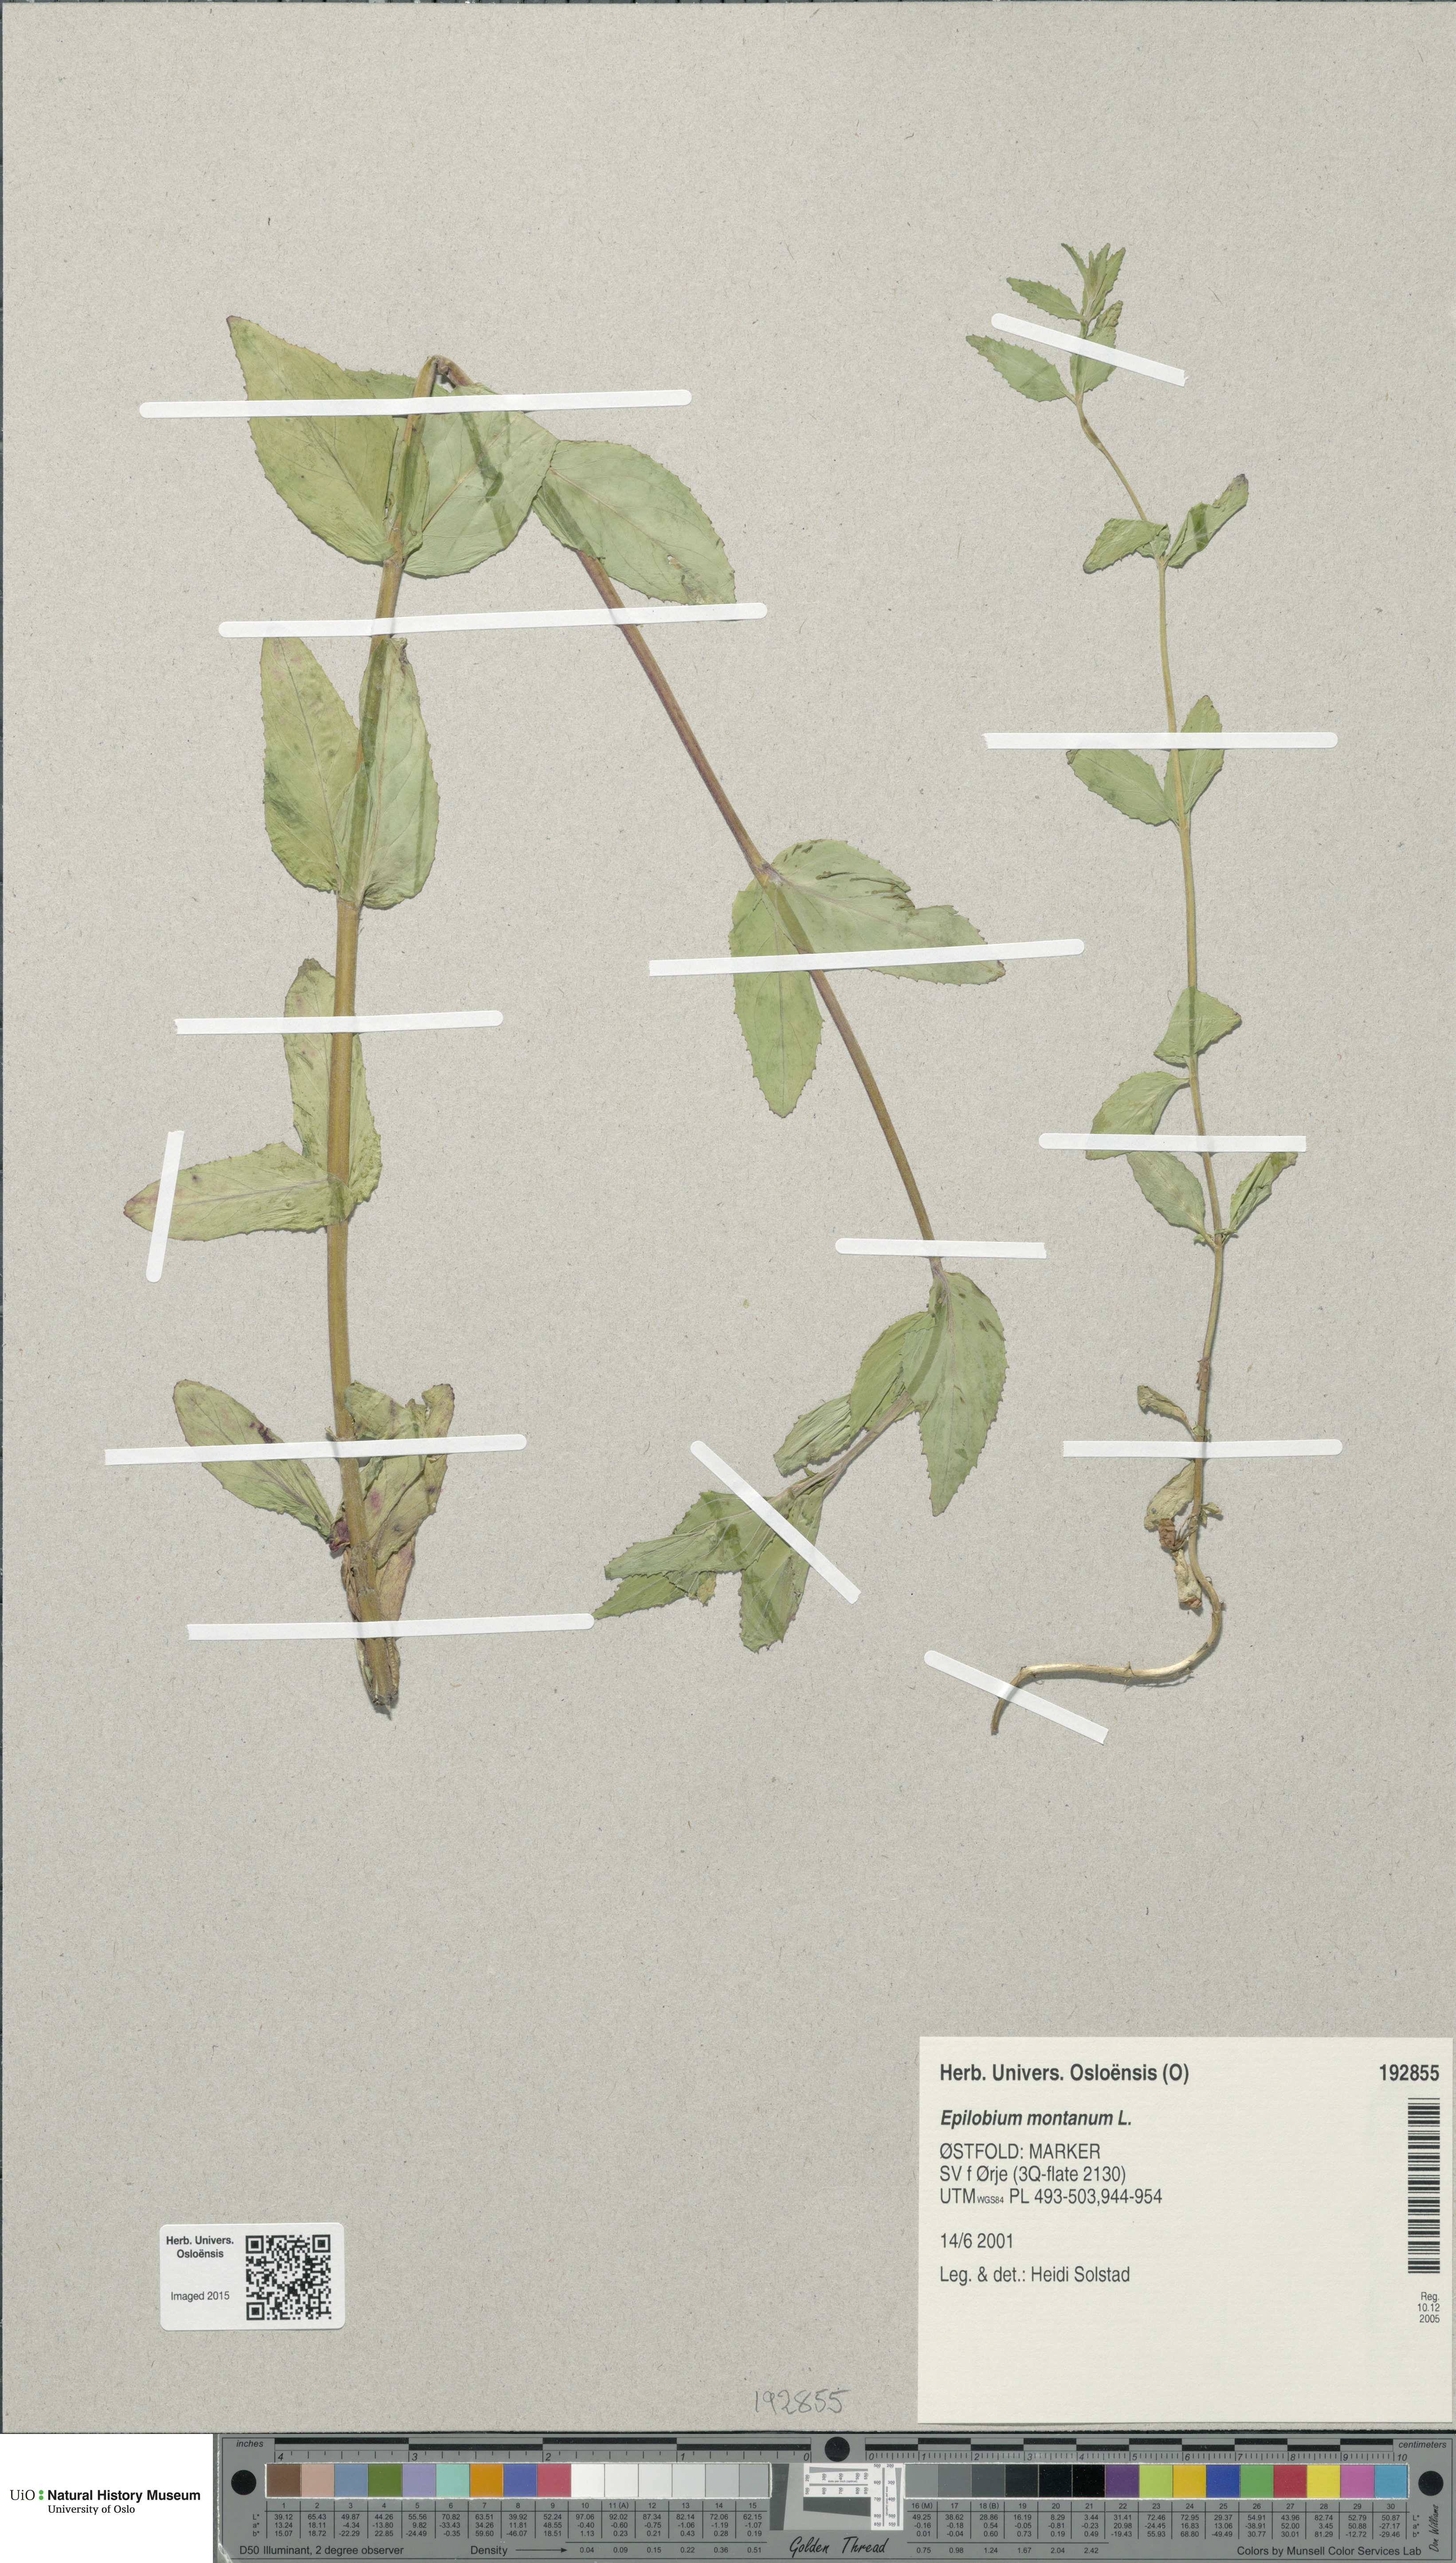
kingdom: Plantae
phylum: Tracheophyta
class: Magnoliopsida
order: Myrtales
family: Onagraceae
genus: Epilobium
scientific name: Epilobium montanum
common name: Broad-leaved willowherb
